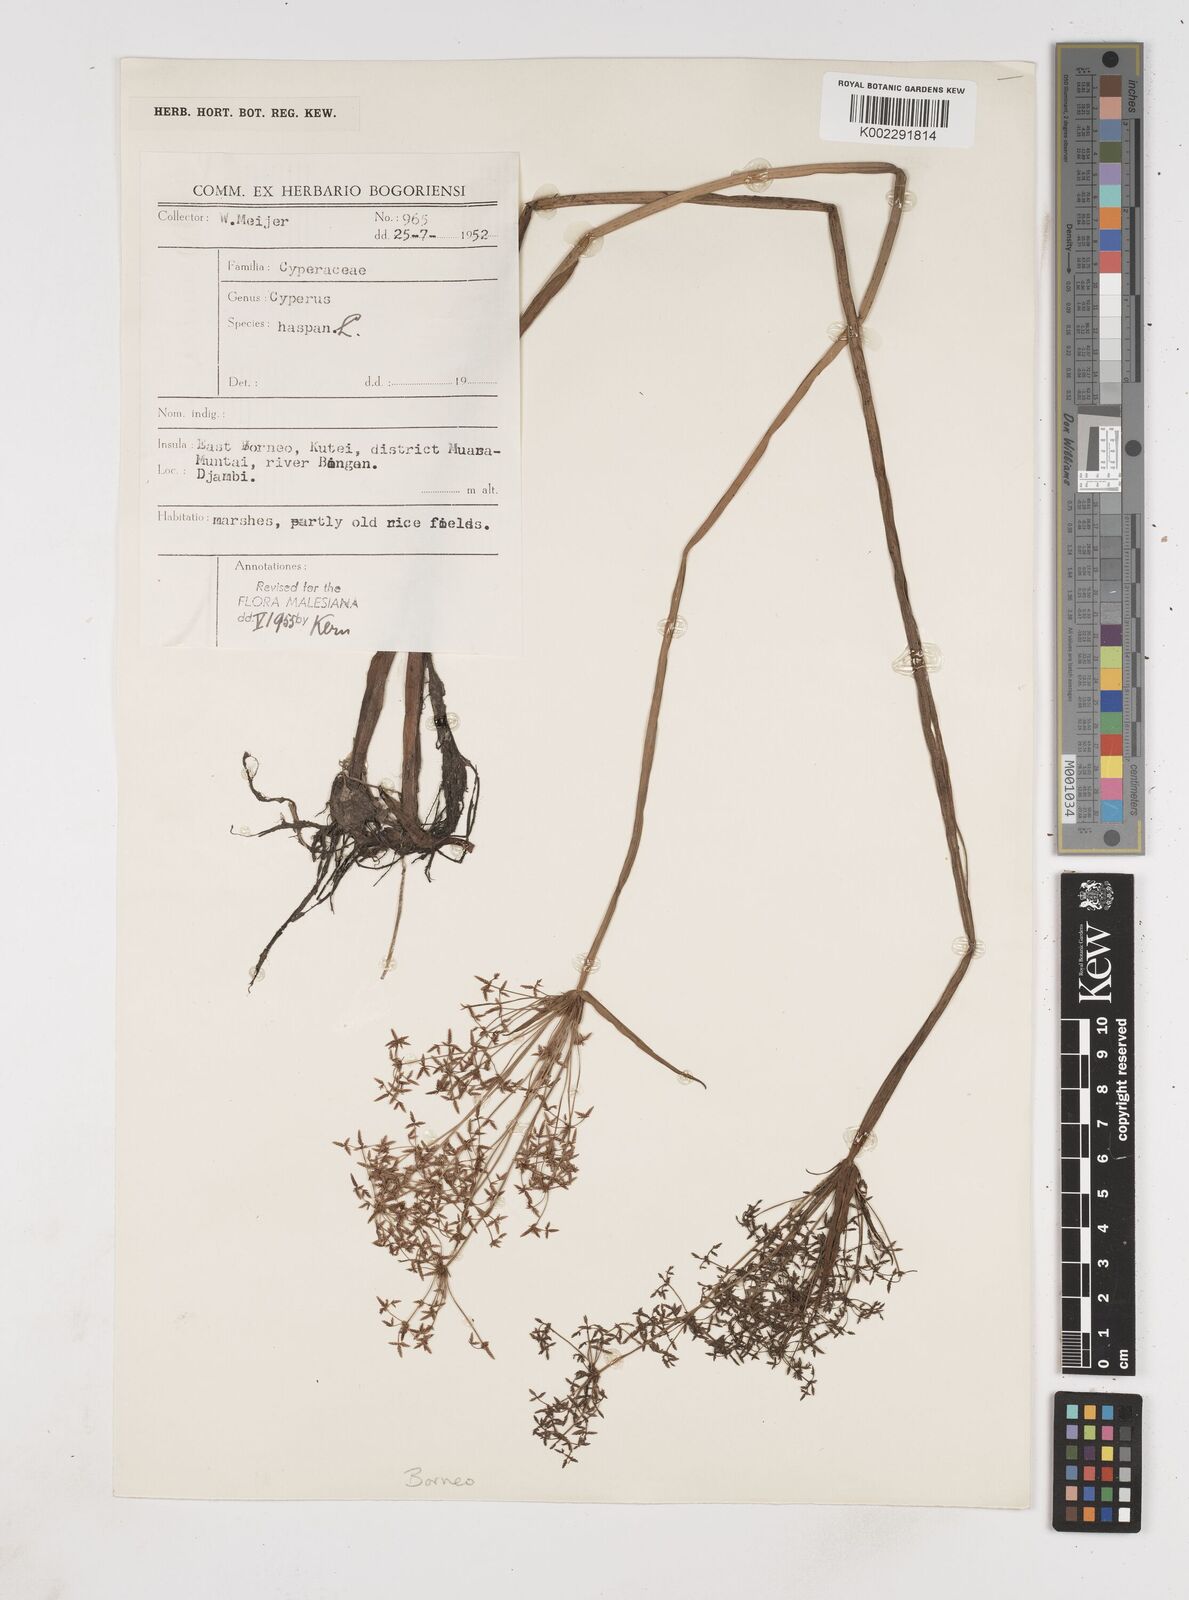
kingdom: Plantae
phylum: Tracheophyta
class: Liliopsida
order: Poales
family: Cyperaceae
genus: Cyperus
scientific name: Cyperus haspan
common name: Haspan flatsedge
